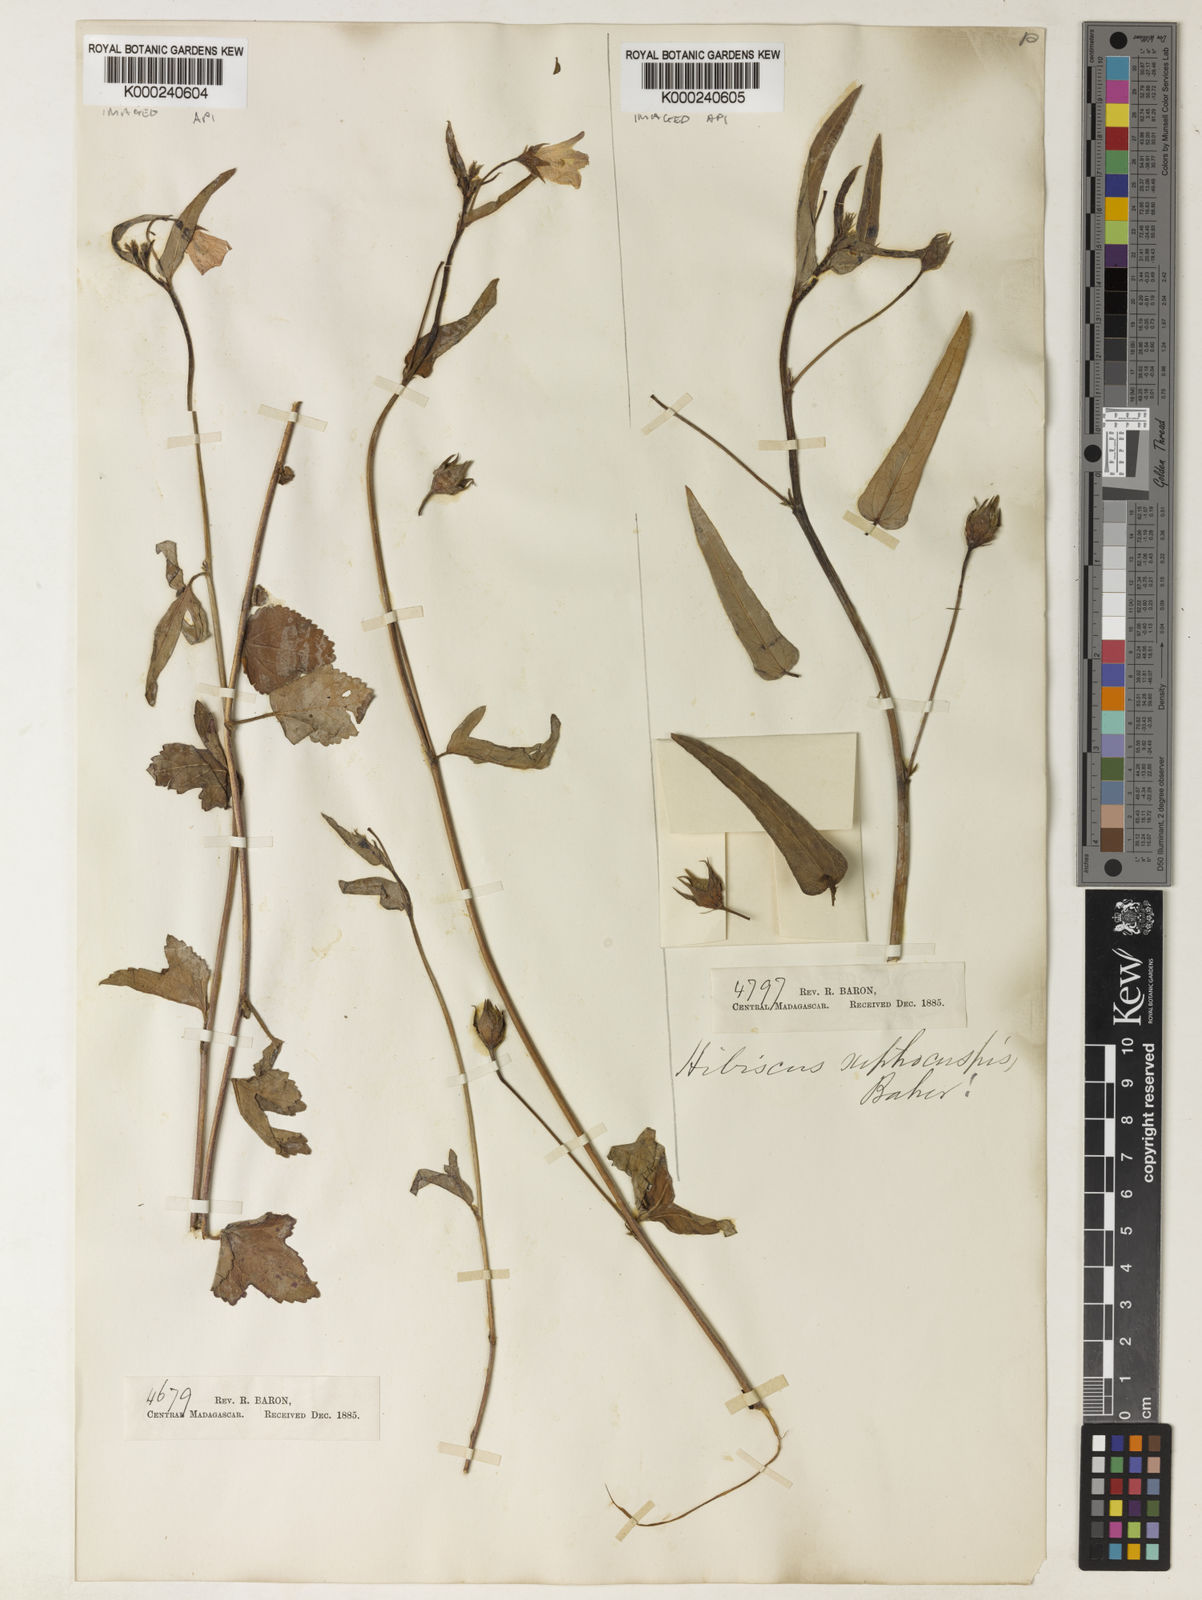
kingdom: Plantae
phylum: Tracheophyta
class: Magnoliopsida
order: Malvales
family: Malvaceae
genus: Hibiscus
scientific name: Hibiscus caerulescens
